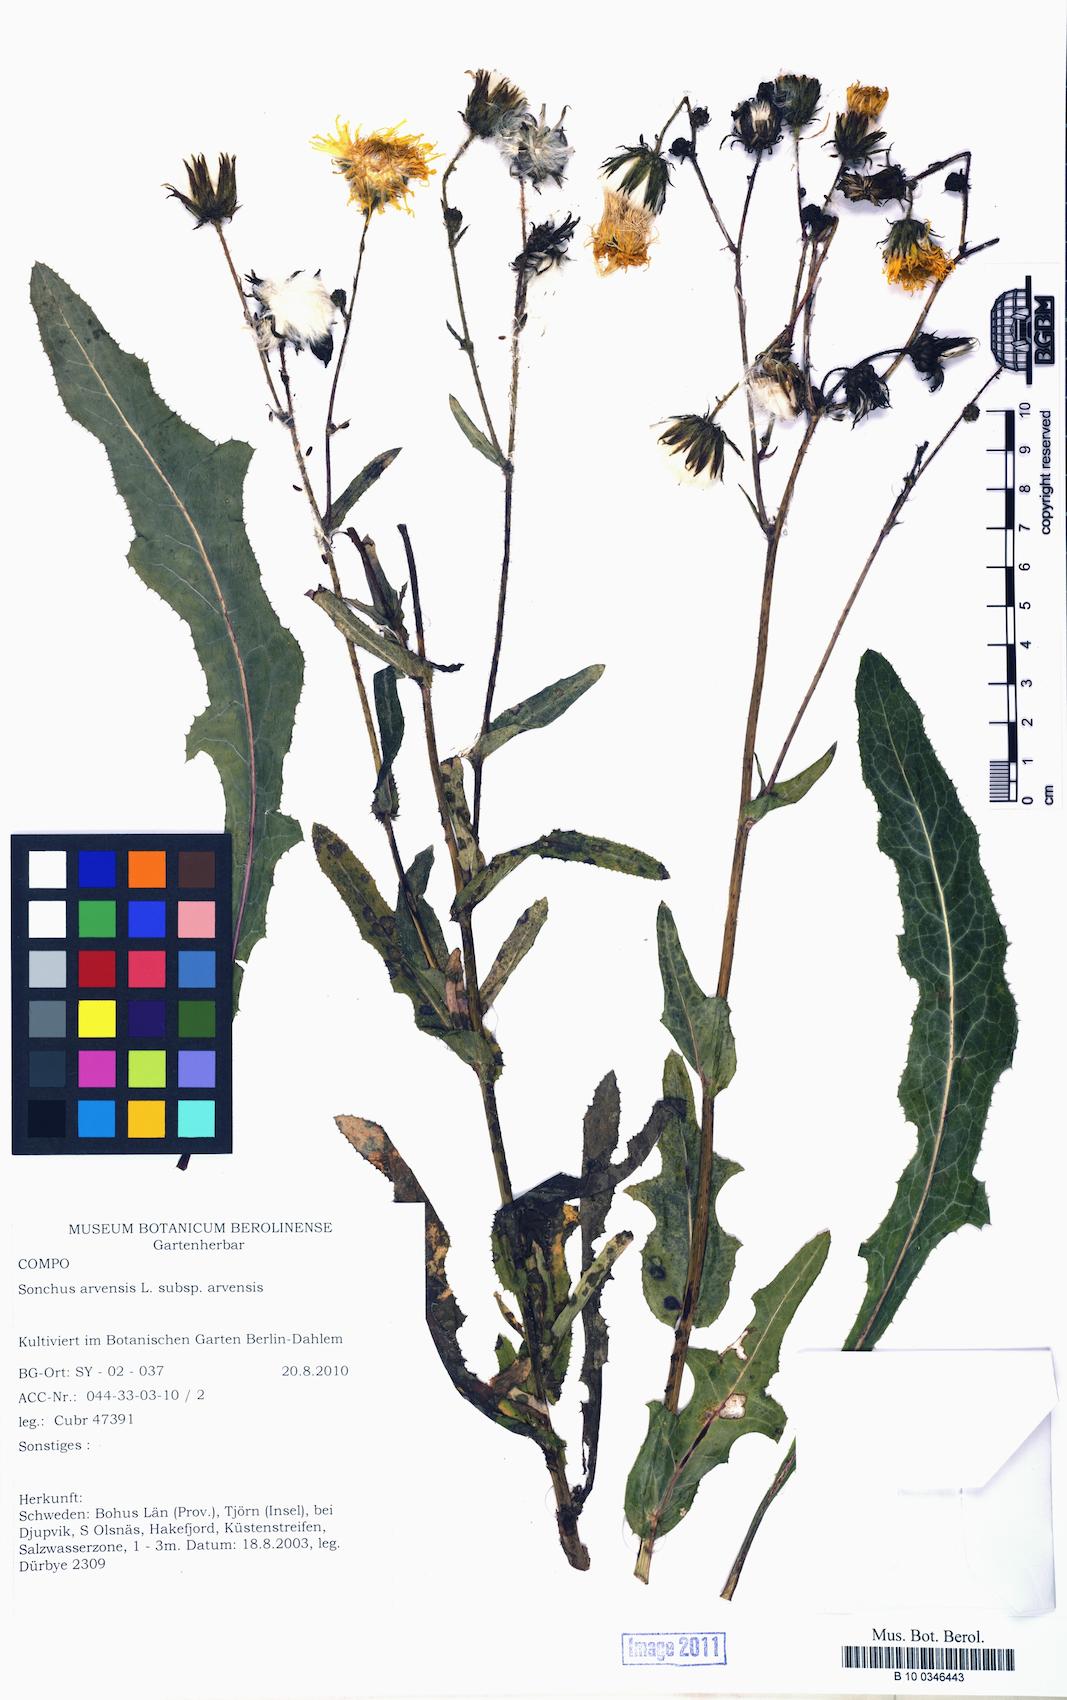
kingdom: Plantae
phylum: Tracheophyta
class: Magnoliopsida
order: Asterales
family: Asteraceae
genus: Sonchus
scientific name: Sonchus arvensis
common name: Perennial sow-thistle
